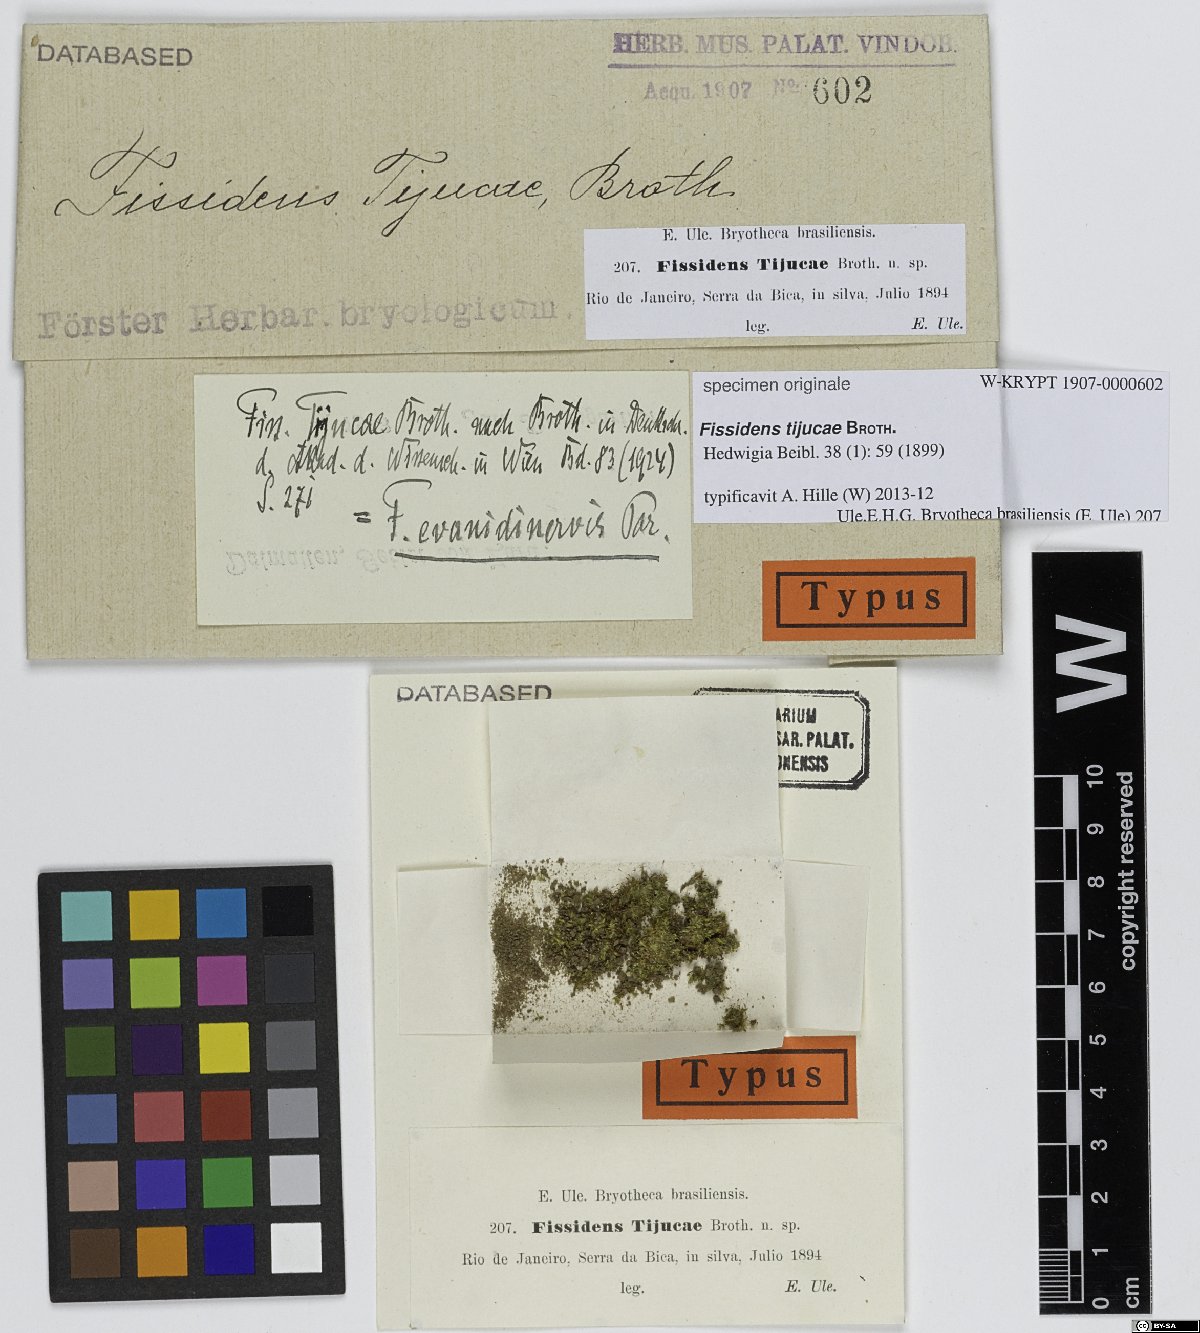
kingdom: Plantae
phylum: Bryophyta
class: Bryopsida
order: Dicranales
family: Fissidentaceae
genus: Fissidens
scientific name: Fissidens
